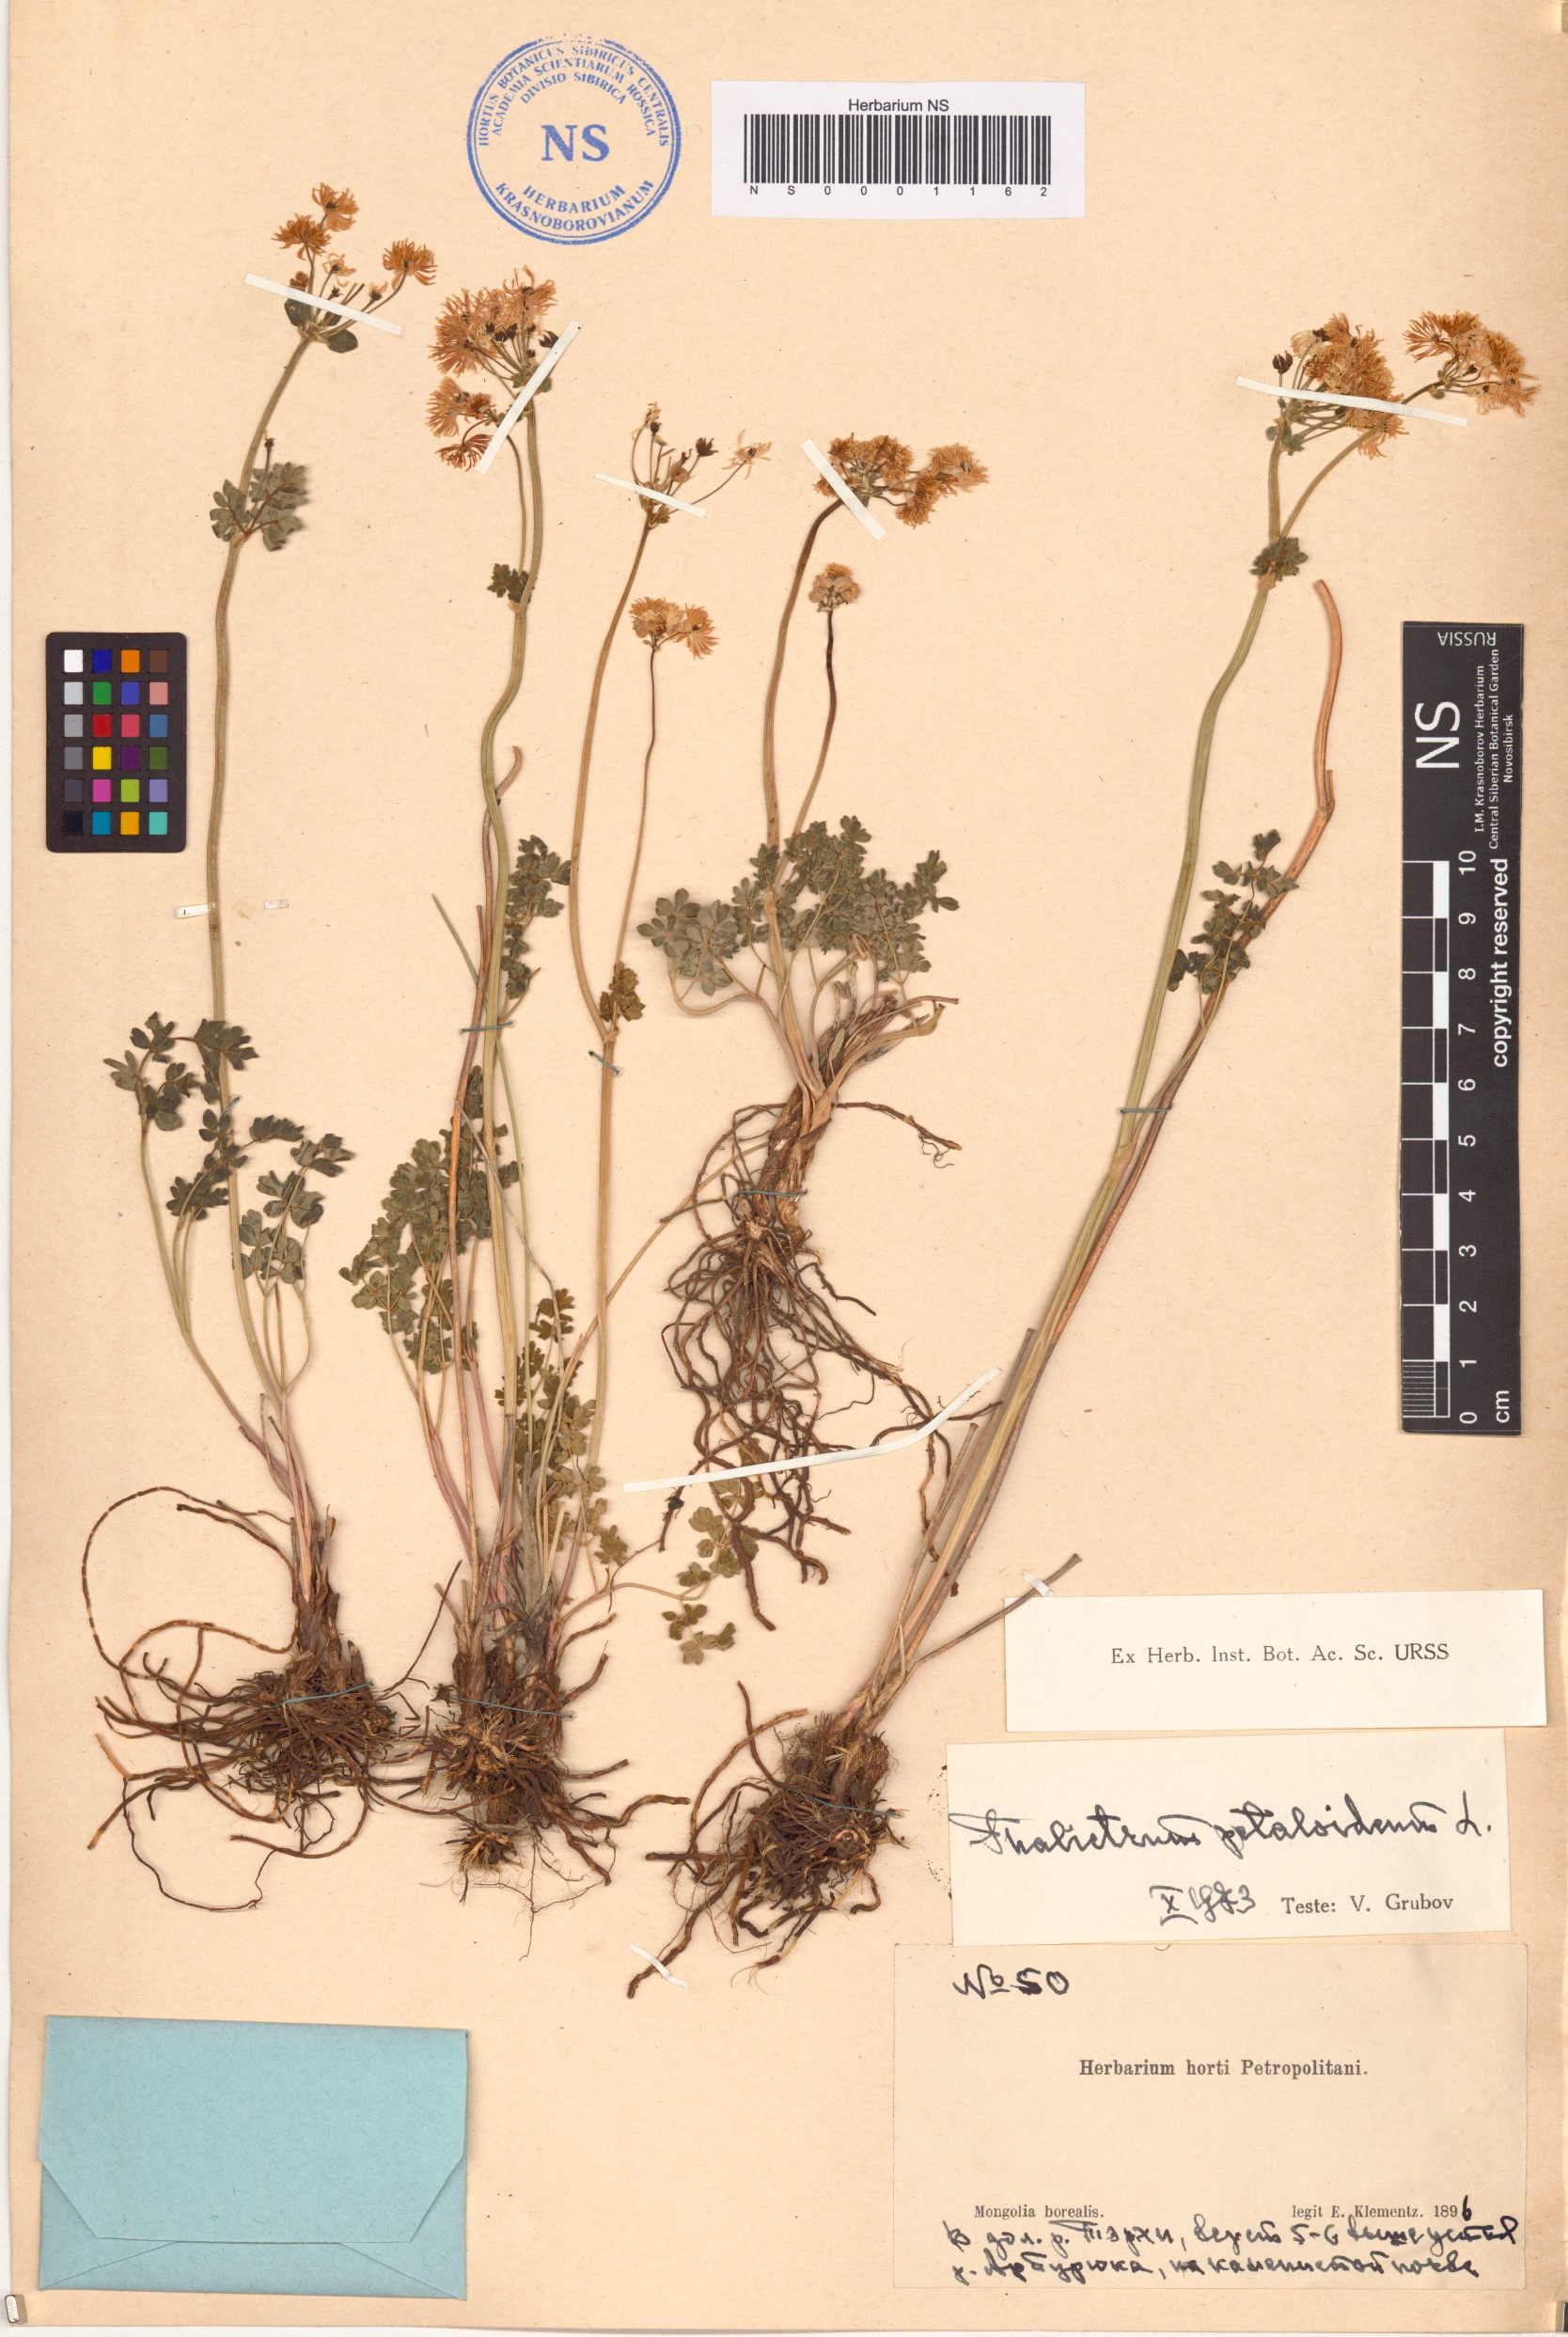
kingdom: Plantae
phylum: Tracheophyta
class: Magnoliopsida
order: Ranunculales
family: Ranunculaceae
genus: Thalictrum
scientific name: Thalictrum petaloideum
